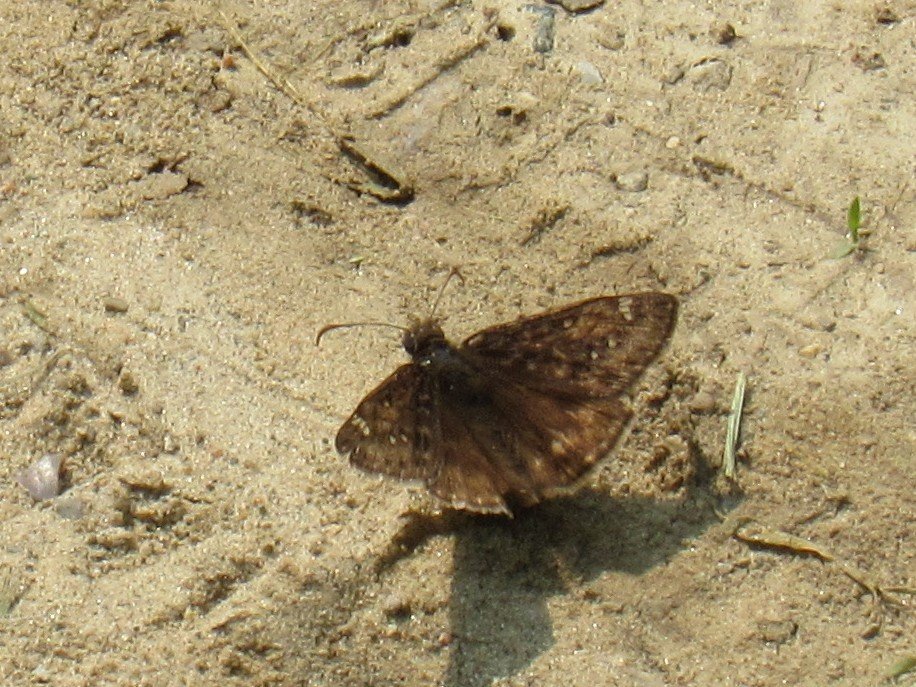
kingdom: Animalia
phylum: Arthropoda
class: Insecta
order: Lepidoptera
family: Hesperiidae
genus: Gesta
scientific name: Gesta
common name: Horace's Duskywing
